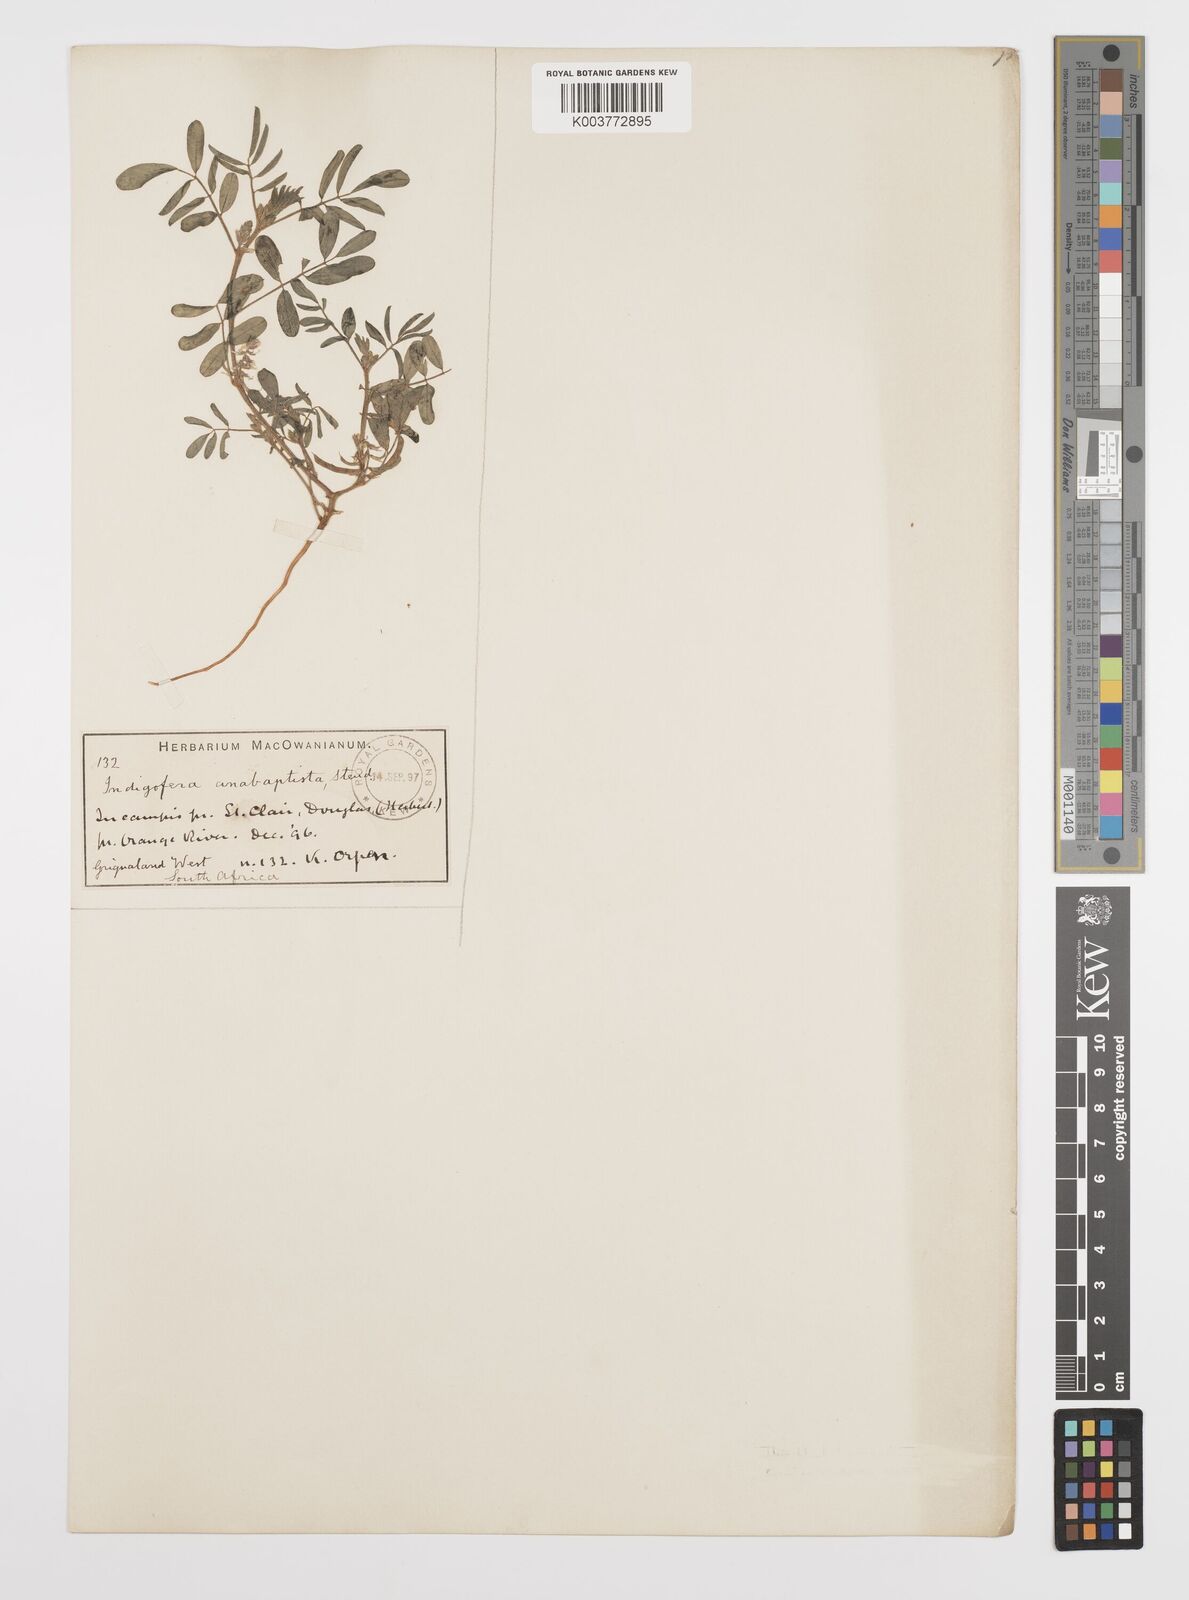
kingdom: Plantae
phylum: Tracheophyta
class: Magnoliopsida
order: Fabales
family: Fabaceae
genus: Indigofera
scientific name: Indigofera damarana
